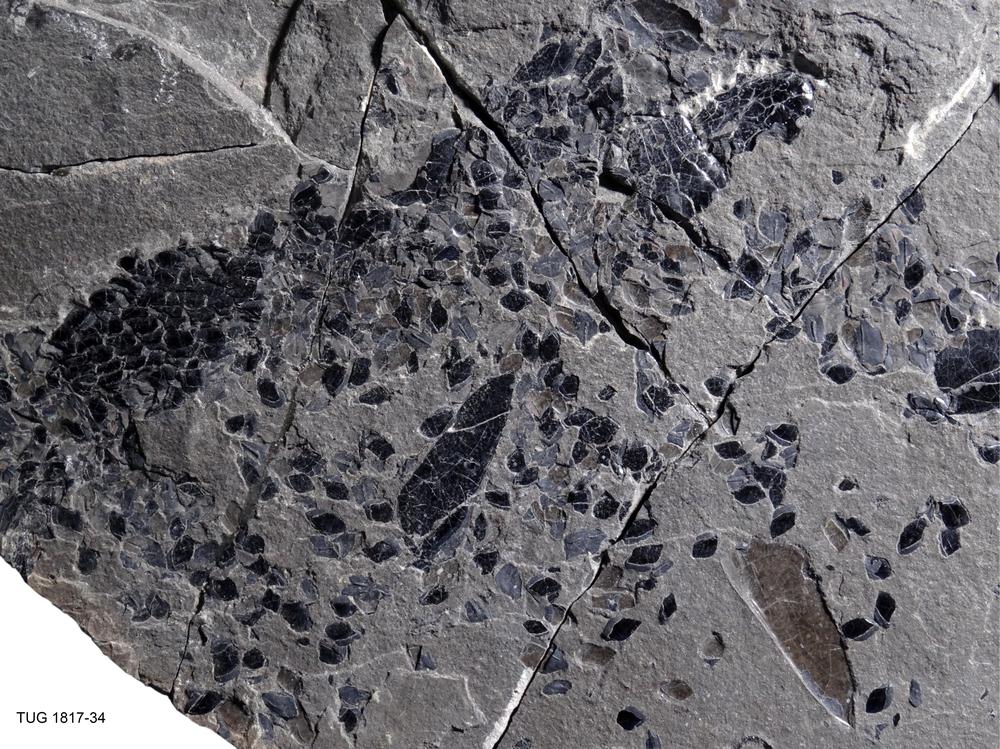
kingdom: Animalia
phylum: Chordata
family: Osteolepididae
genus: Osteolepis
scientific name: Osteolepis macrolepidotus
